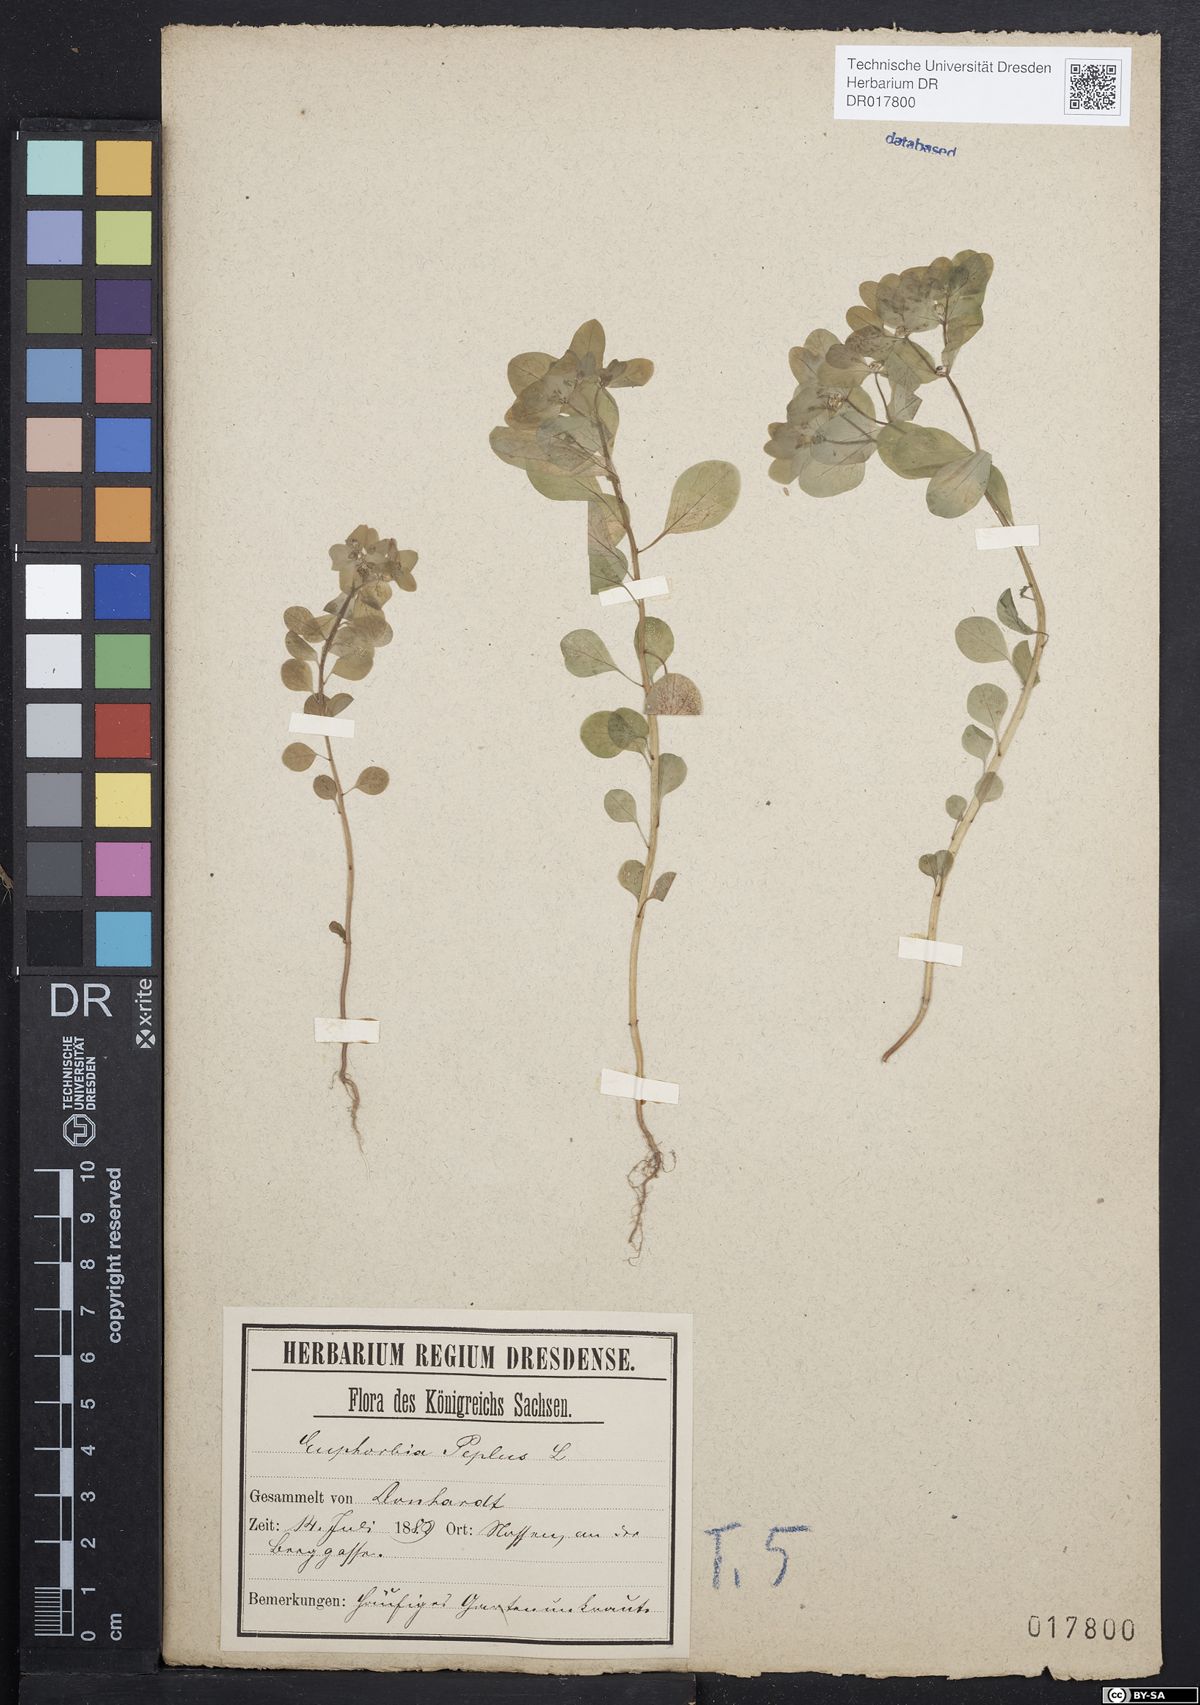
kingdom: Plantae
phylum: Tracheophyta
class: Magnoliopsida
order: Malpighiales
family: Euphorbiaceae
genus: Euphorbia
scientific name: Euphorbia peplus
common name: Petty spurge
